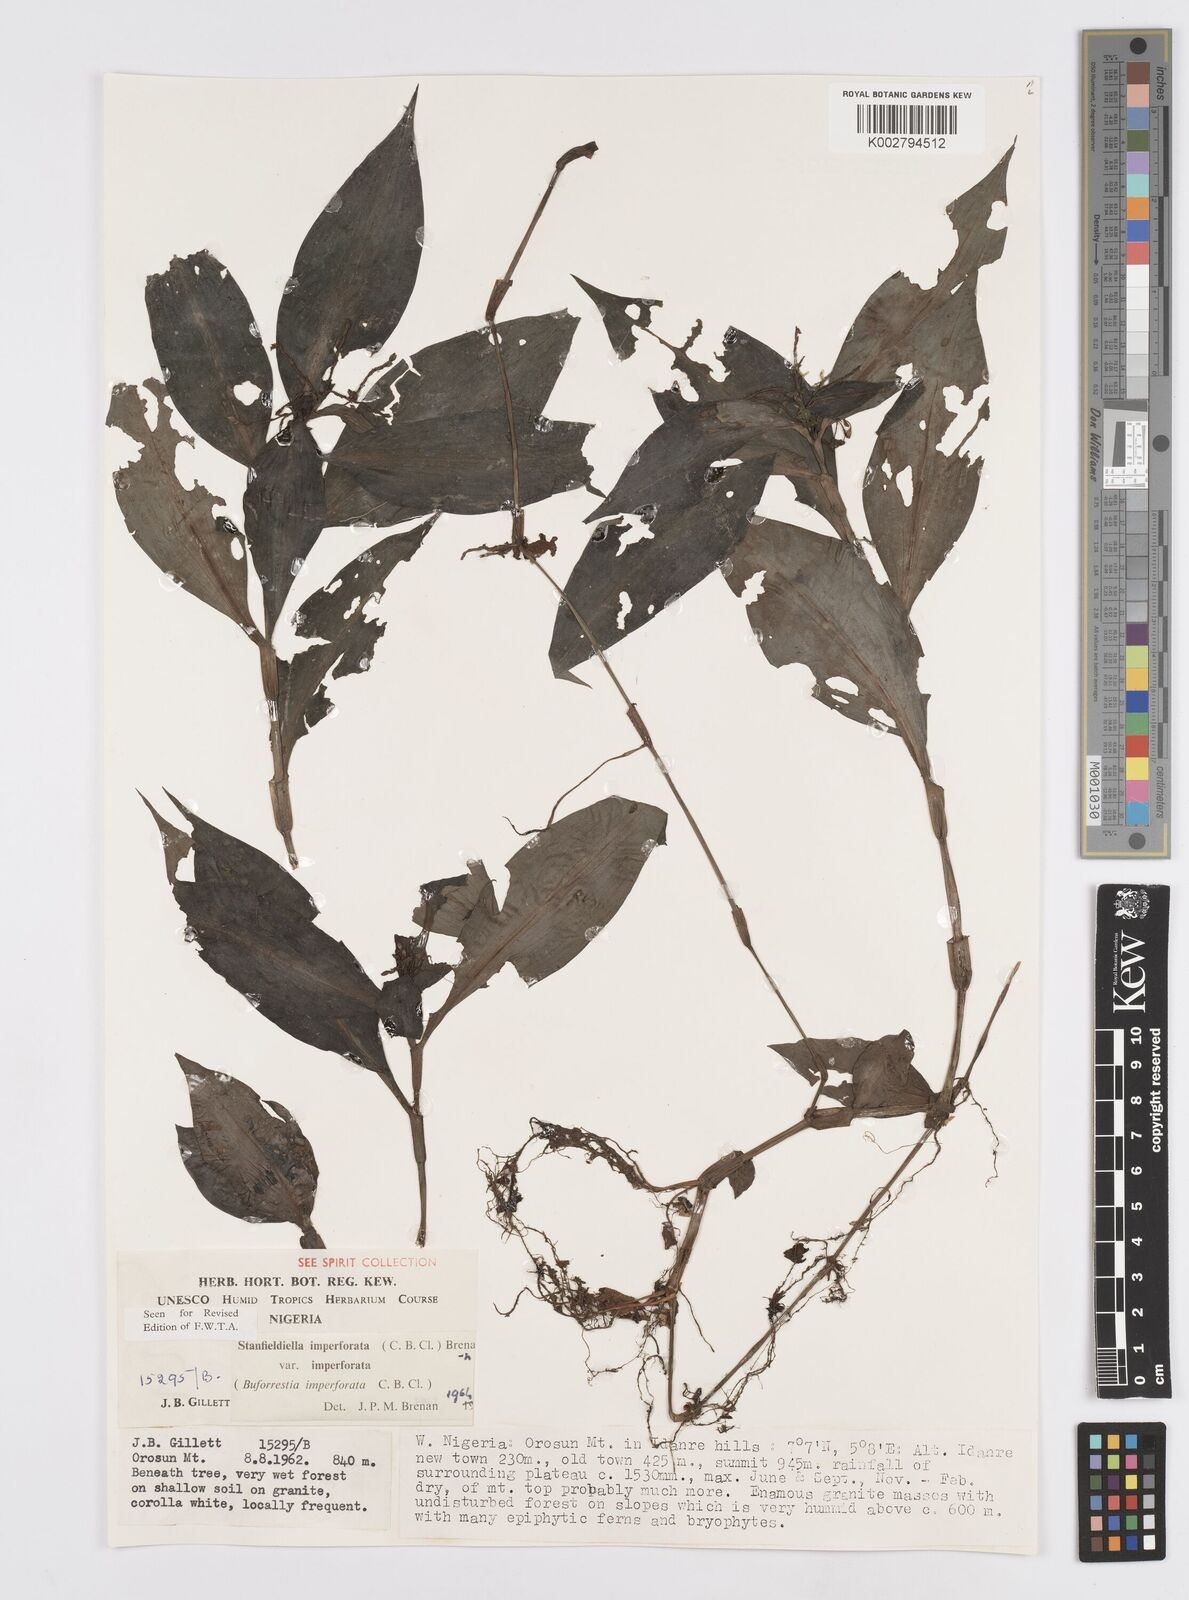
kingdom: Plantae
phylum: Tracheophyta
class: Liliopsida
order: Commelinales
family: Commelinaceae
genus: Stanfieldiella
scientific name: Stanfieldiella imperforata
